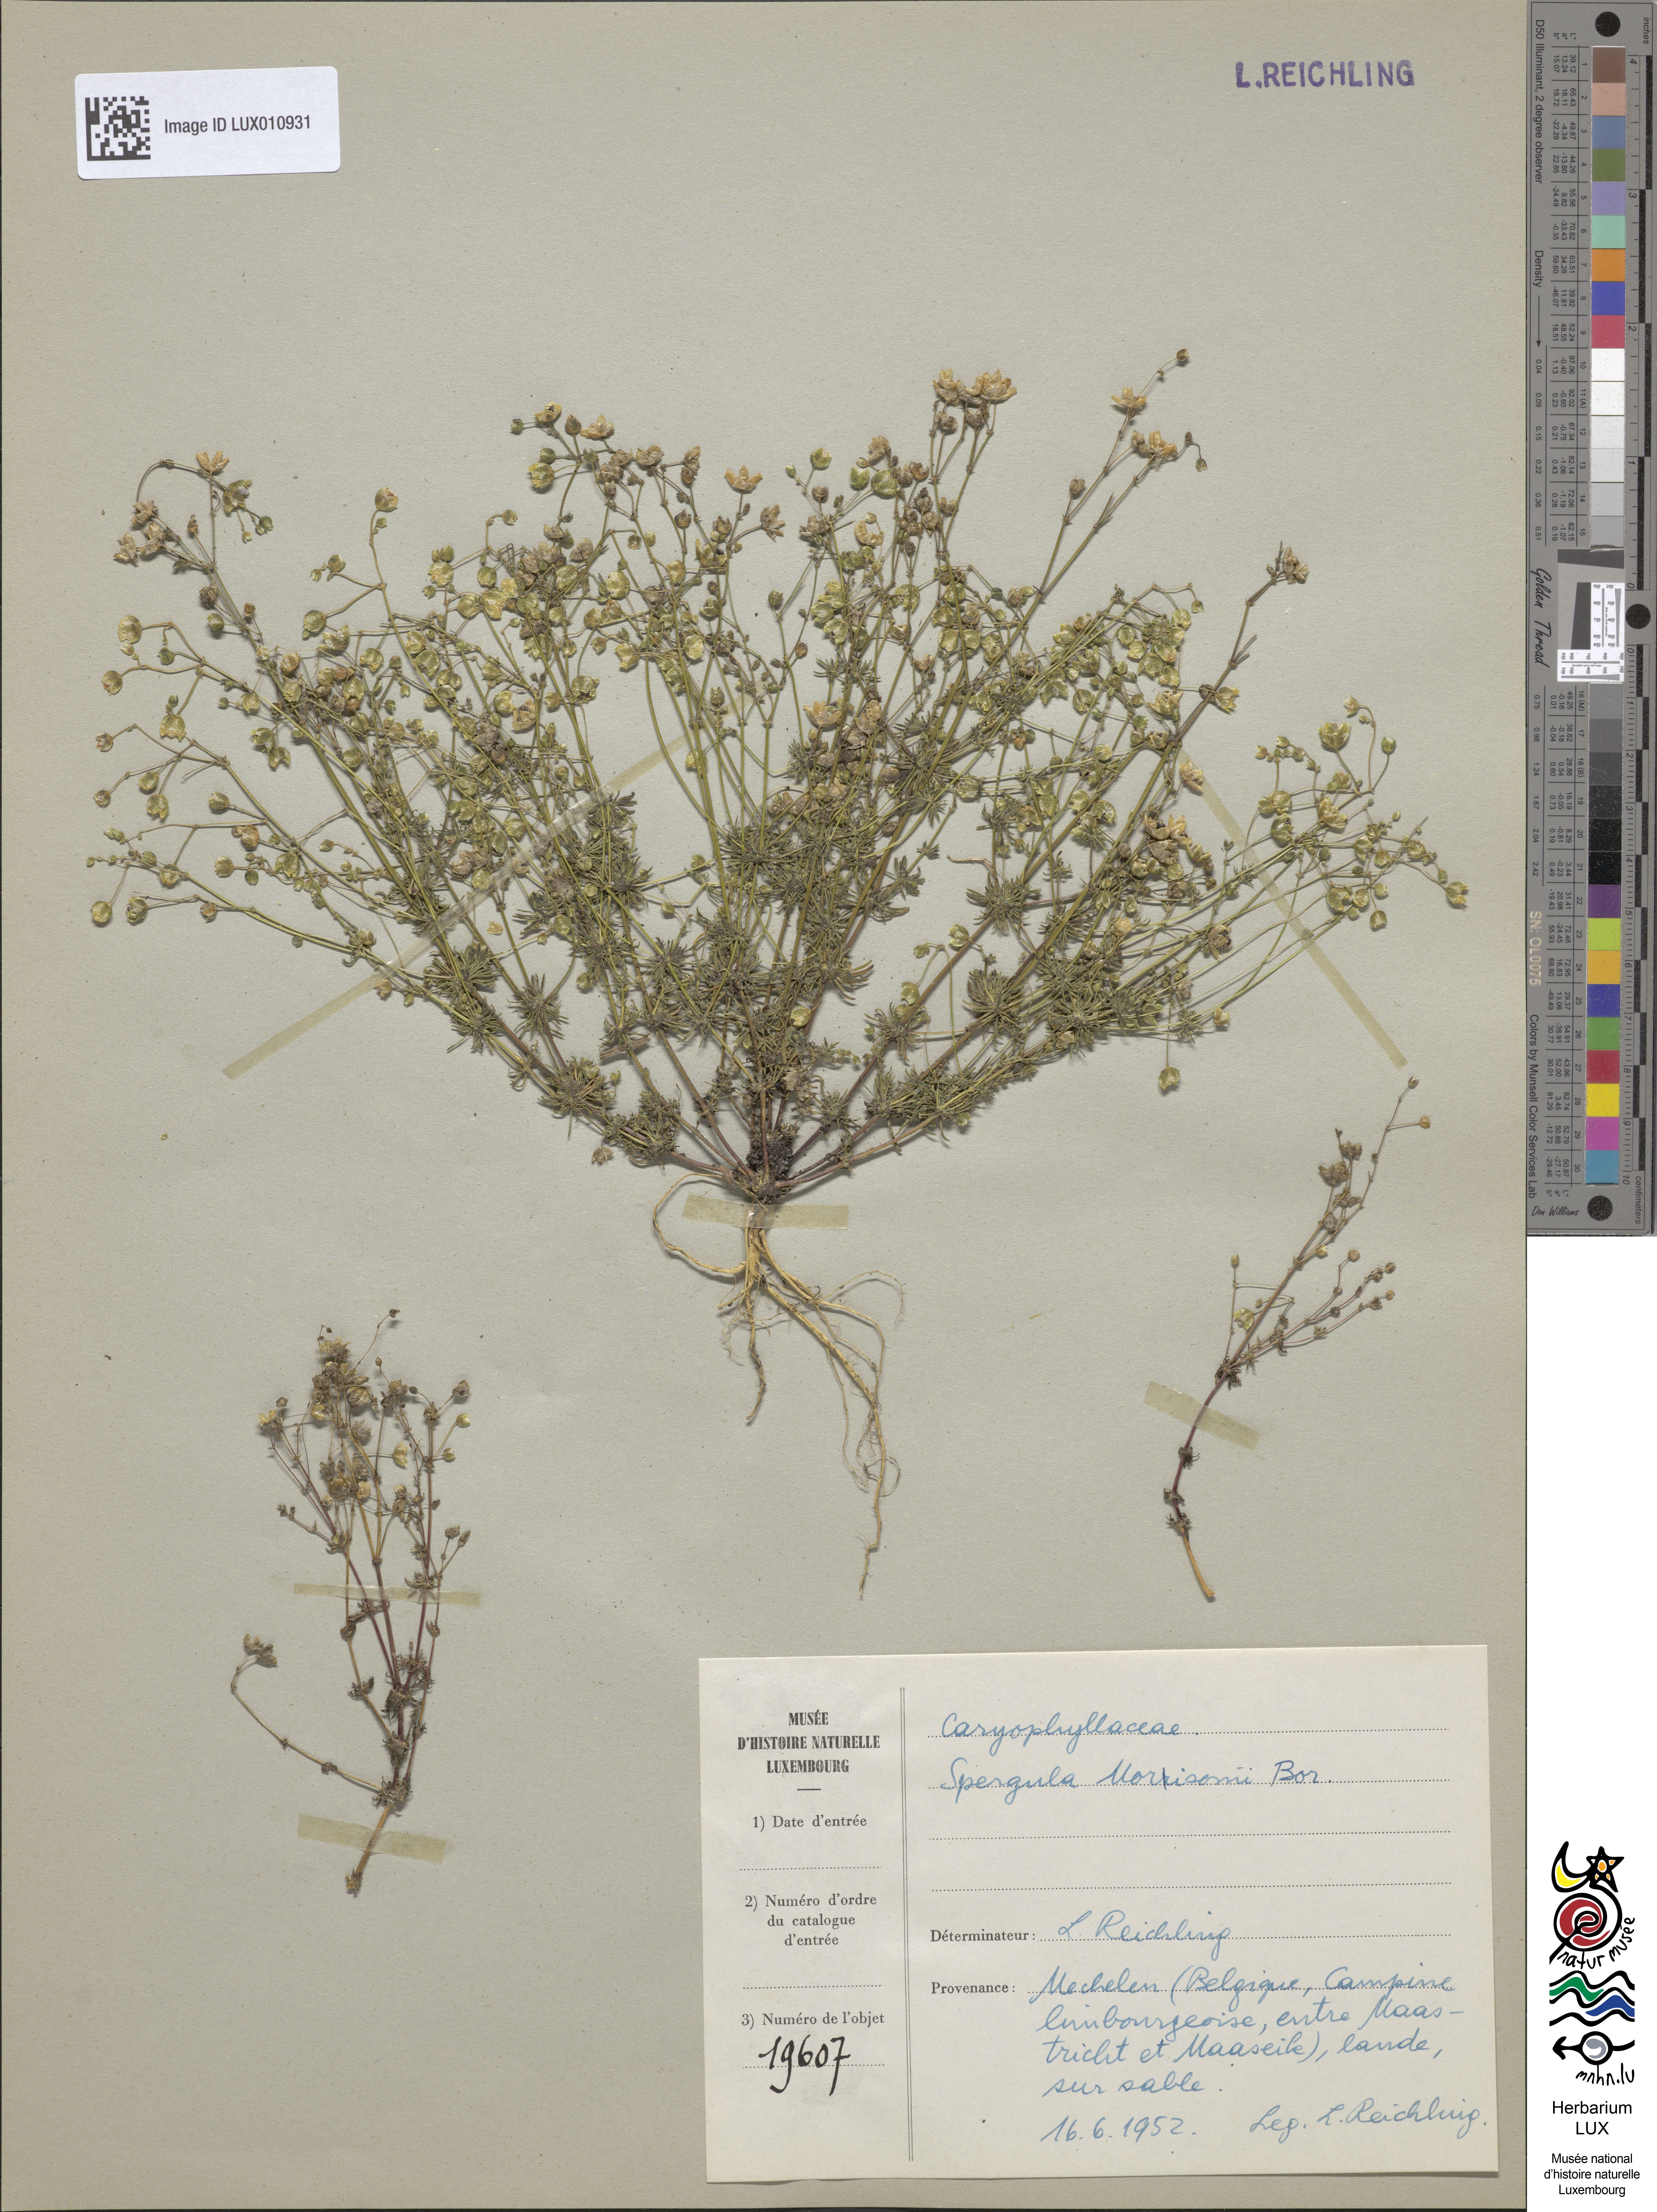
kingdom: Plantae
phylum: Tracheophyta
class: Magnoliopsida
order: Caryophyllales
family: Caryophyllaceae
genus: Spergula
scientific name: Spergula morisonii
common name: Pearlwort spurrey
